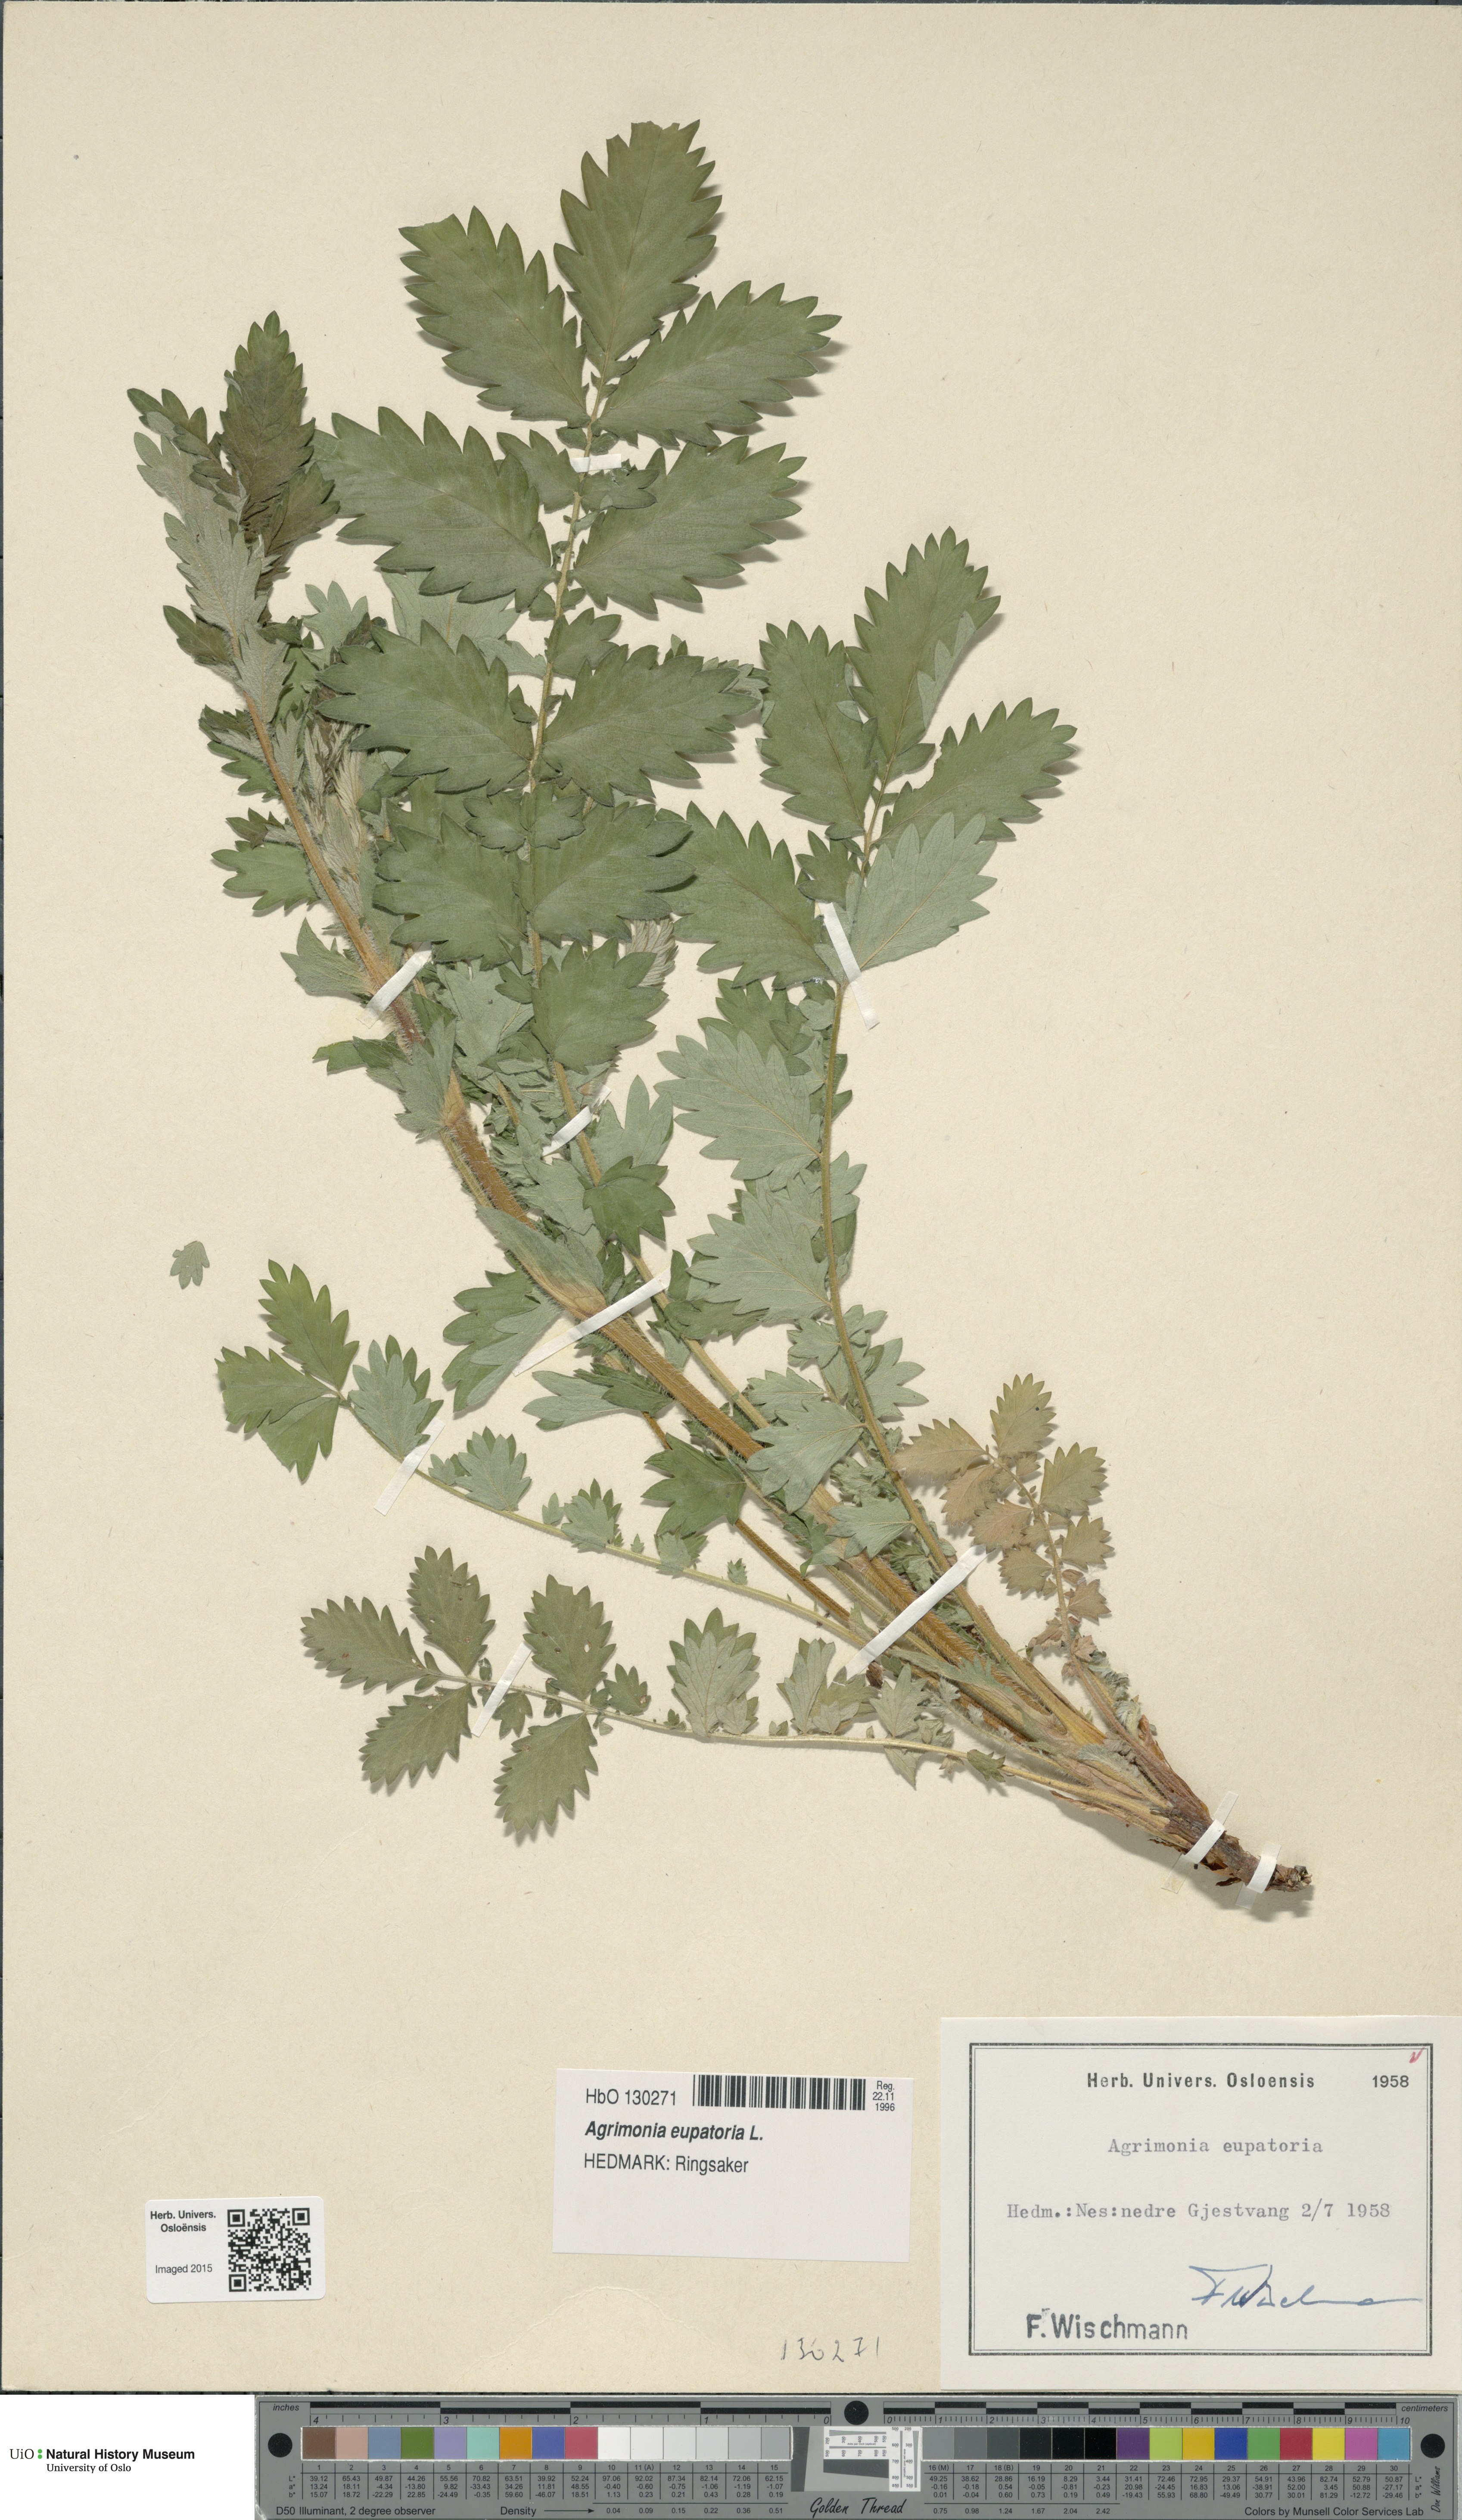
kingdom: Plantae
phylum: Tracheophyta
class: Magnoliopsida
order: Rosales
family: Rosaceae
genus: Agrimonia
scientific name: Agrimonia eupatoria
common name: Agrimony
